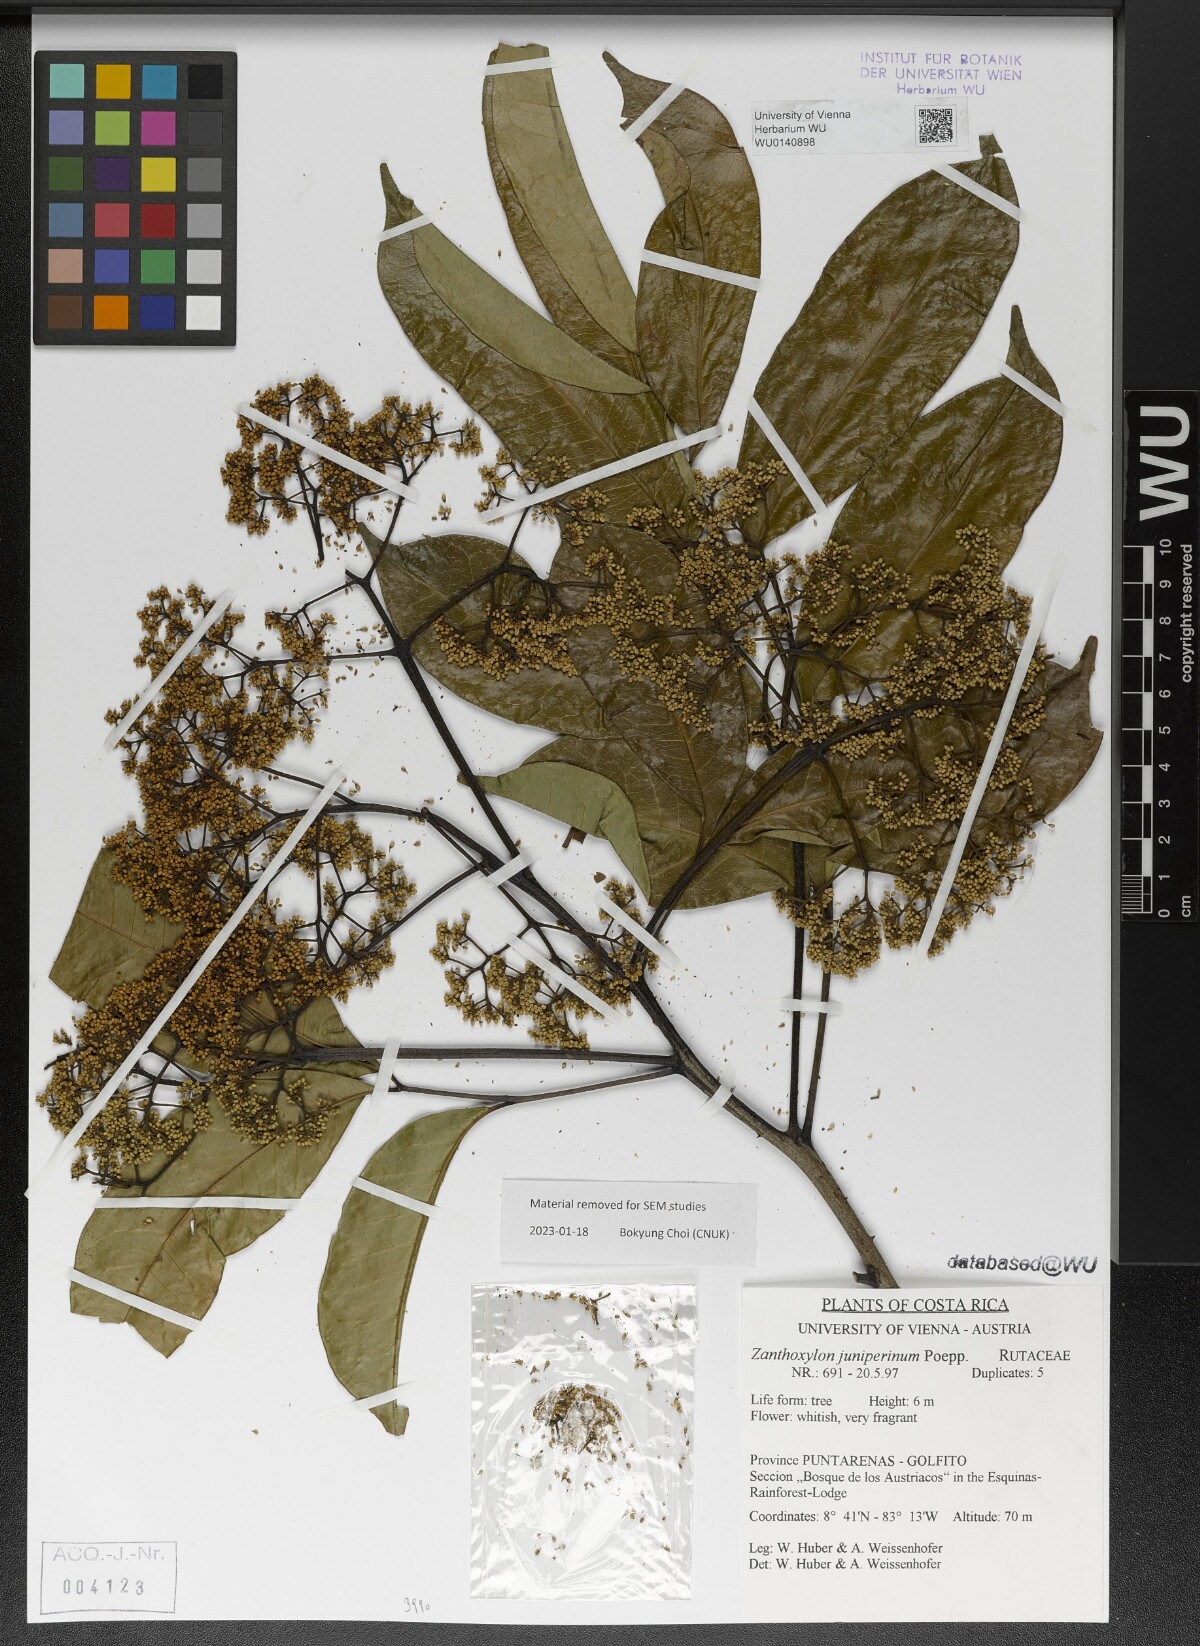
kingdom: Plantae
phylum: Tracheophyta
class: Magnoliopsida
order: Sapindales
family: Rutaceae
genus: Zanthoxylum
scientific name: Zanthoxylum acuminatum
